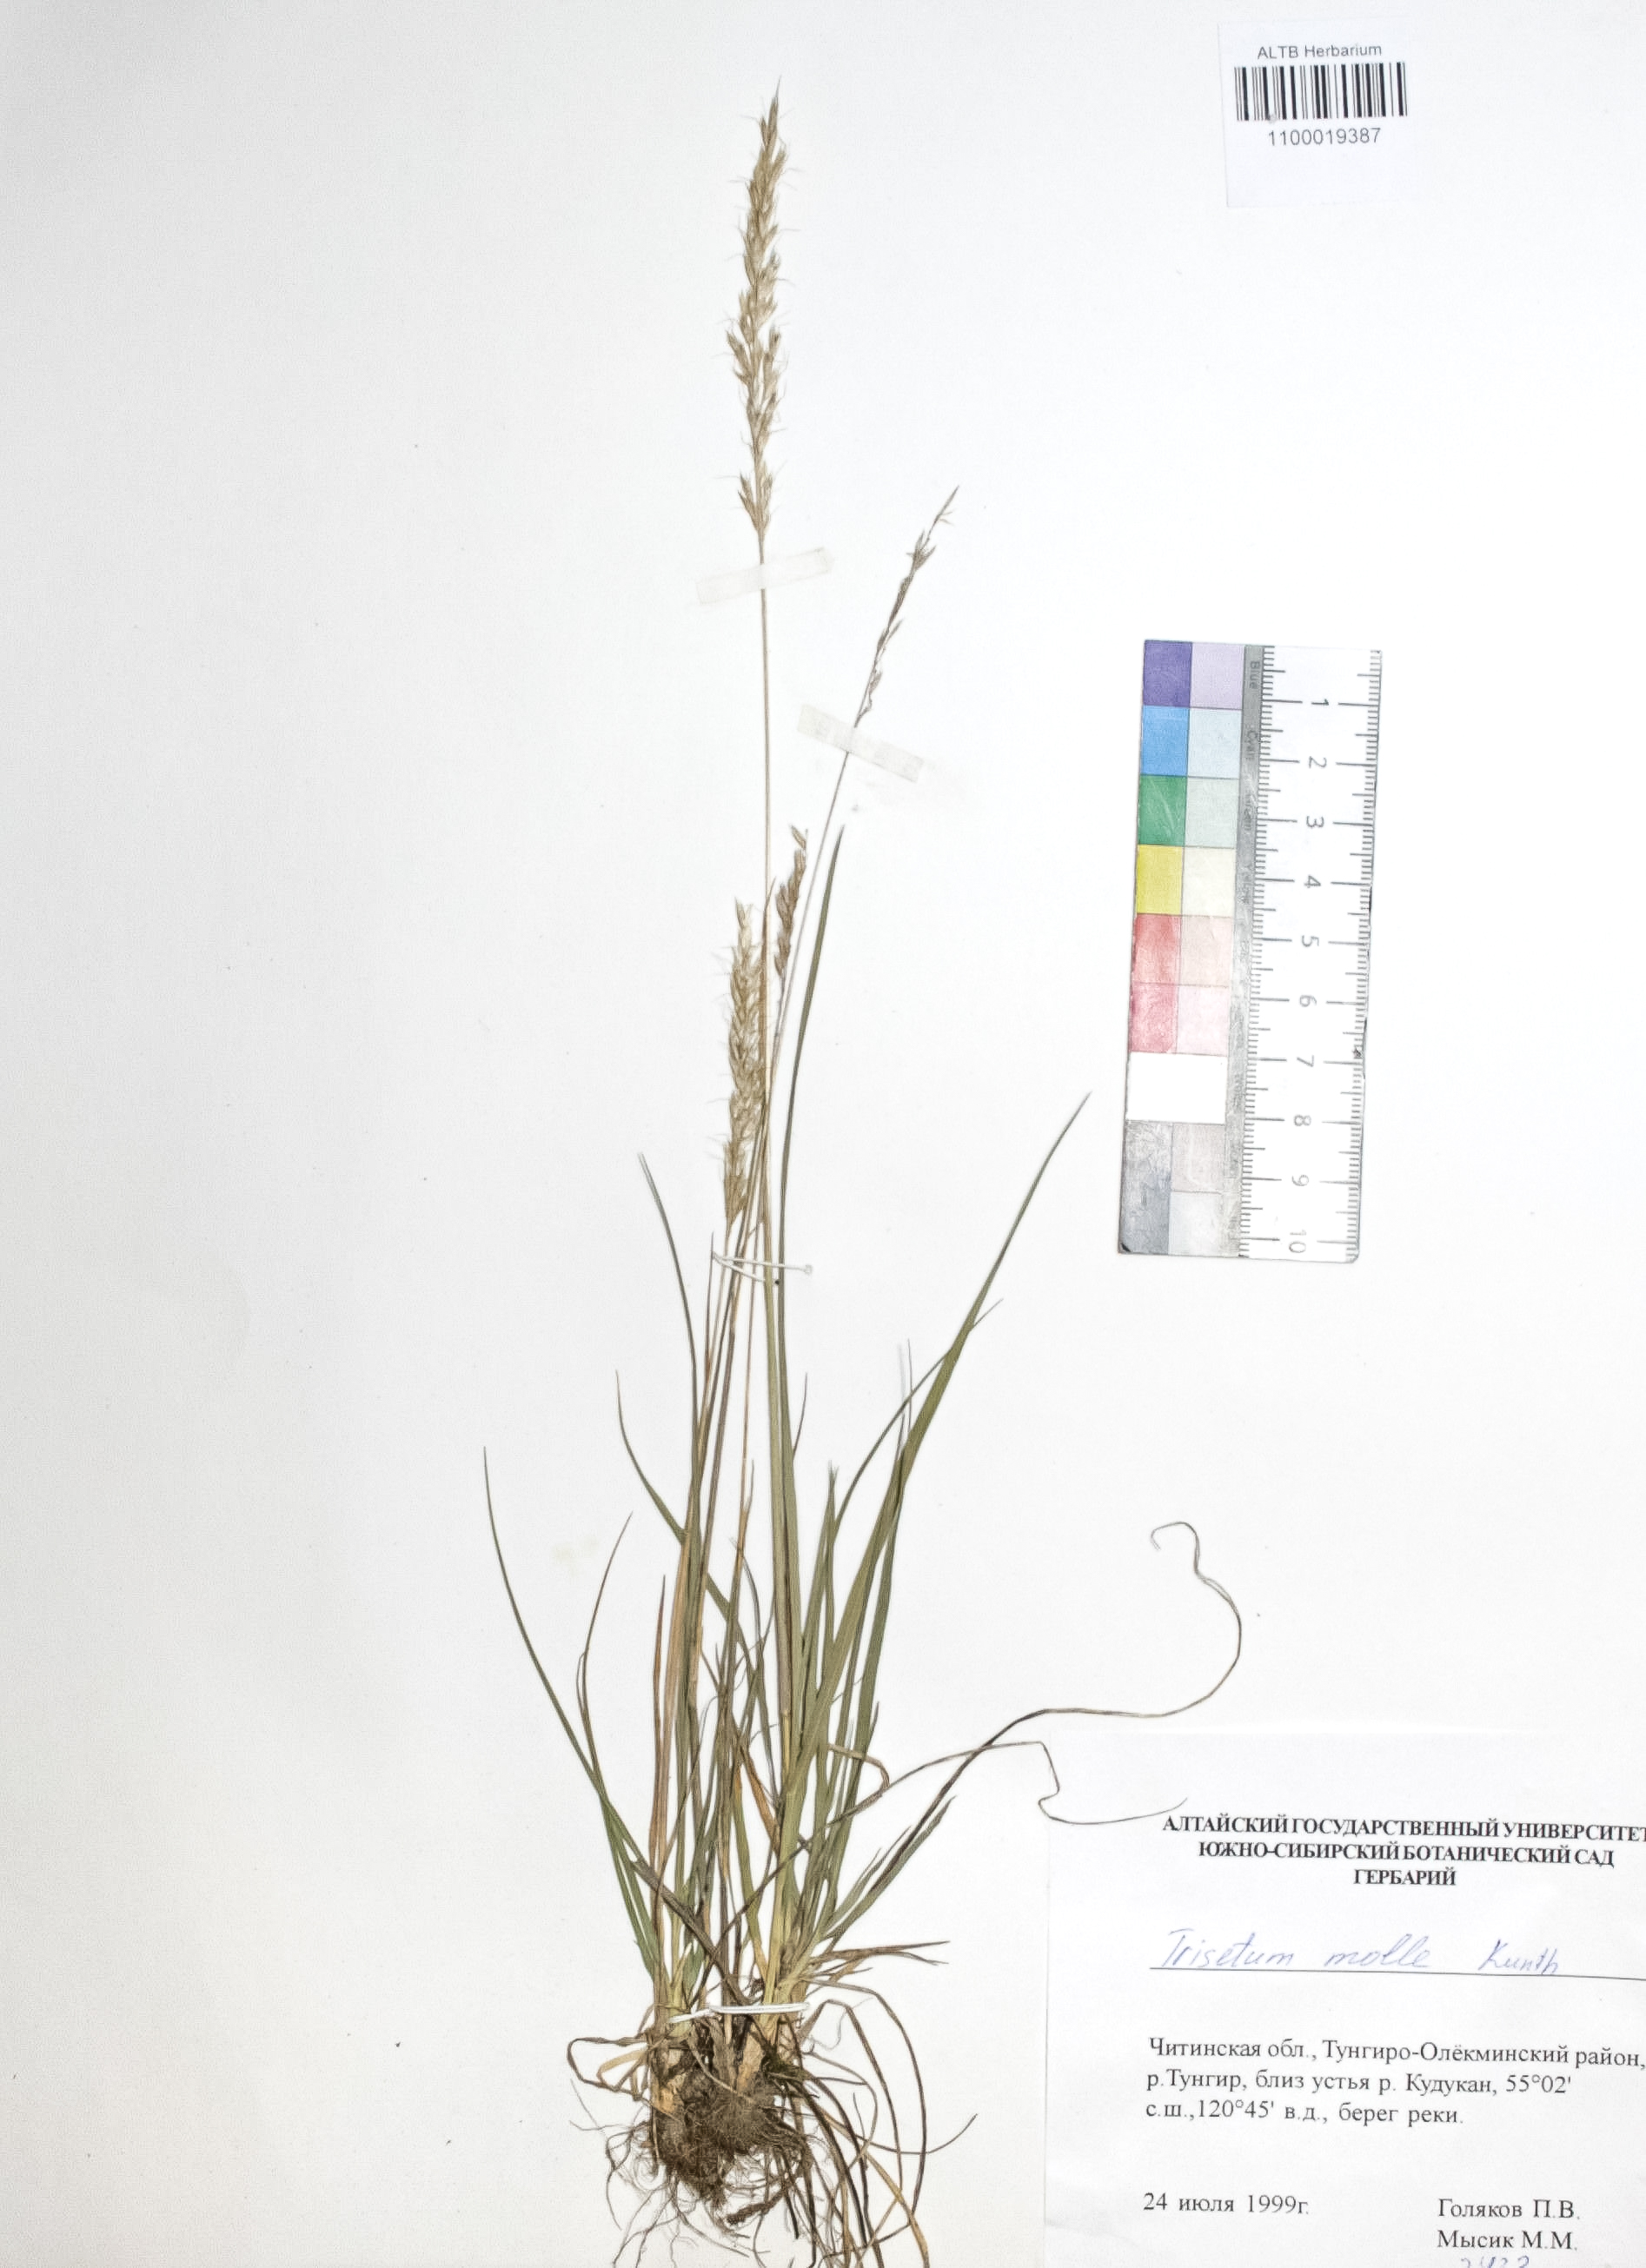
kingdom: Plantae
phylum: Tracheophyta
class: Liliopsida
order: Poales
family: Poaceae
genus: Koeleria
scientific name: Koeleria spicata
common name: Mountain trisetum
